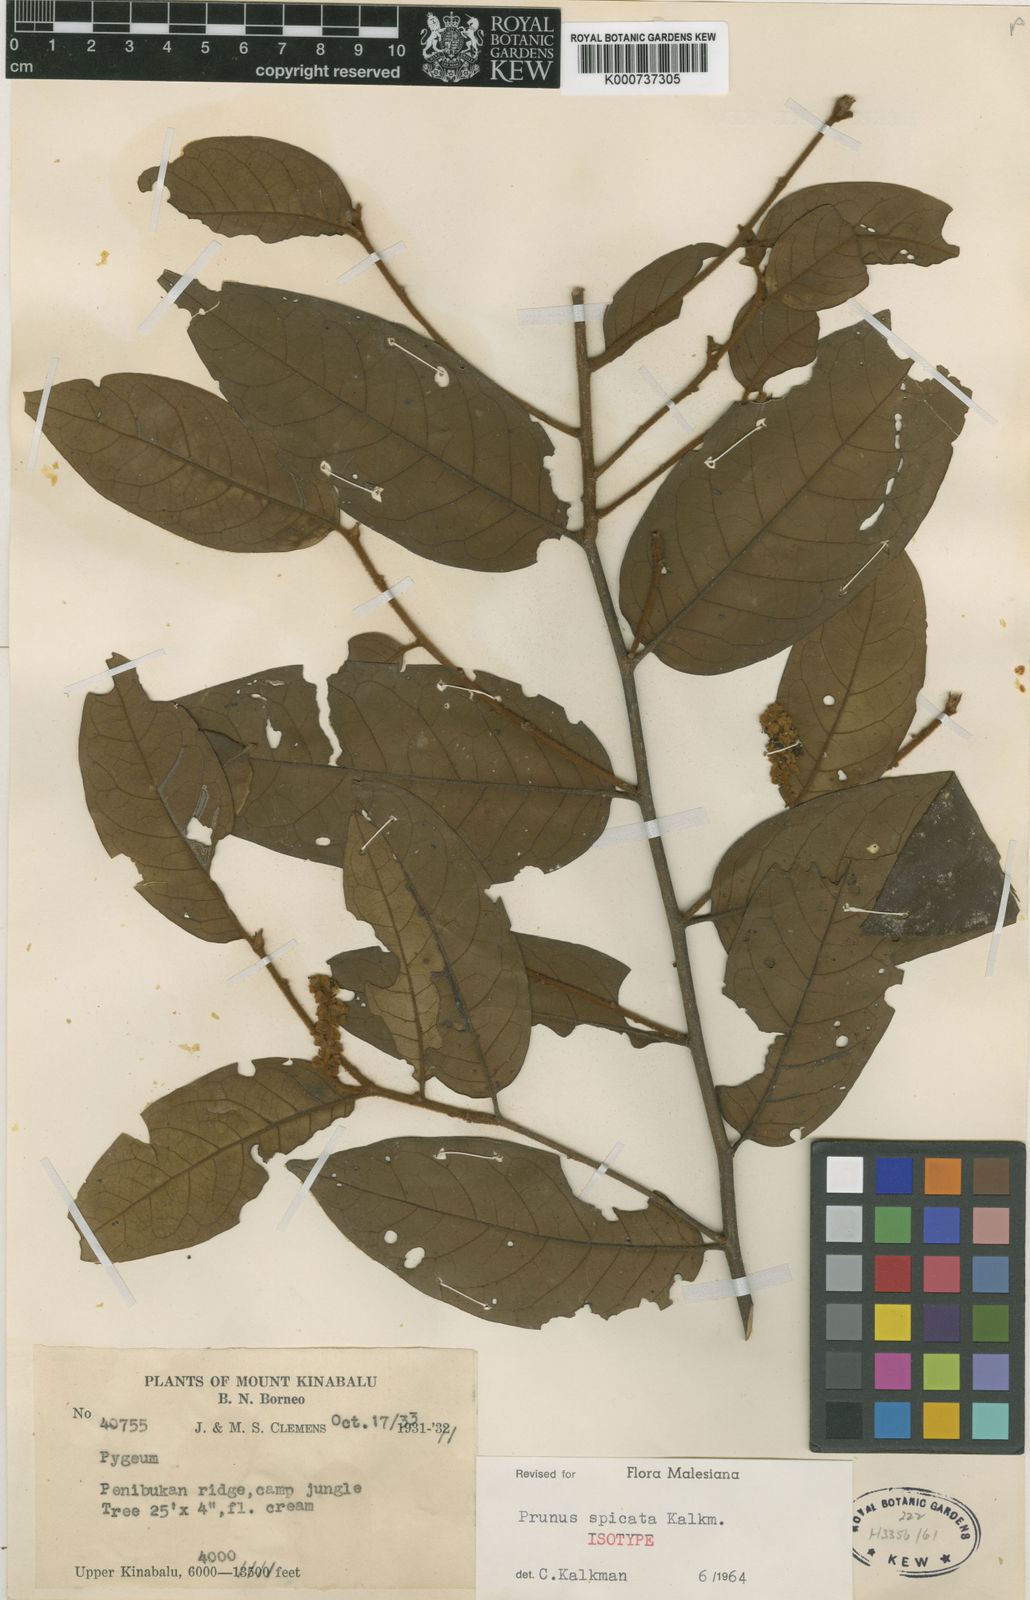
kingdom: Plantae
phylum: Tracheophyta
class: Magnoliopsida
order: Rosales
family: Rosaceae
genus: Prunus
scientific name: Prunus spicata
